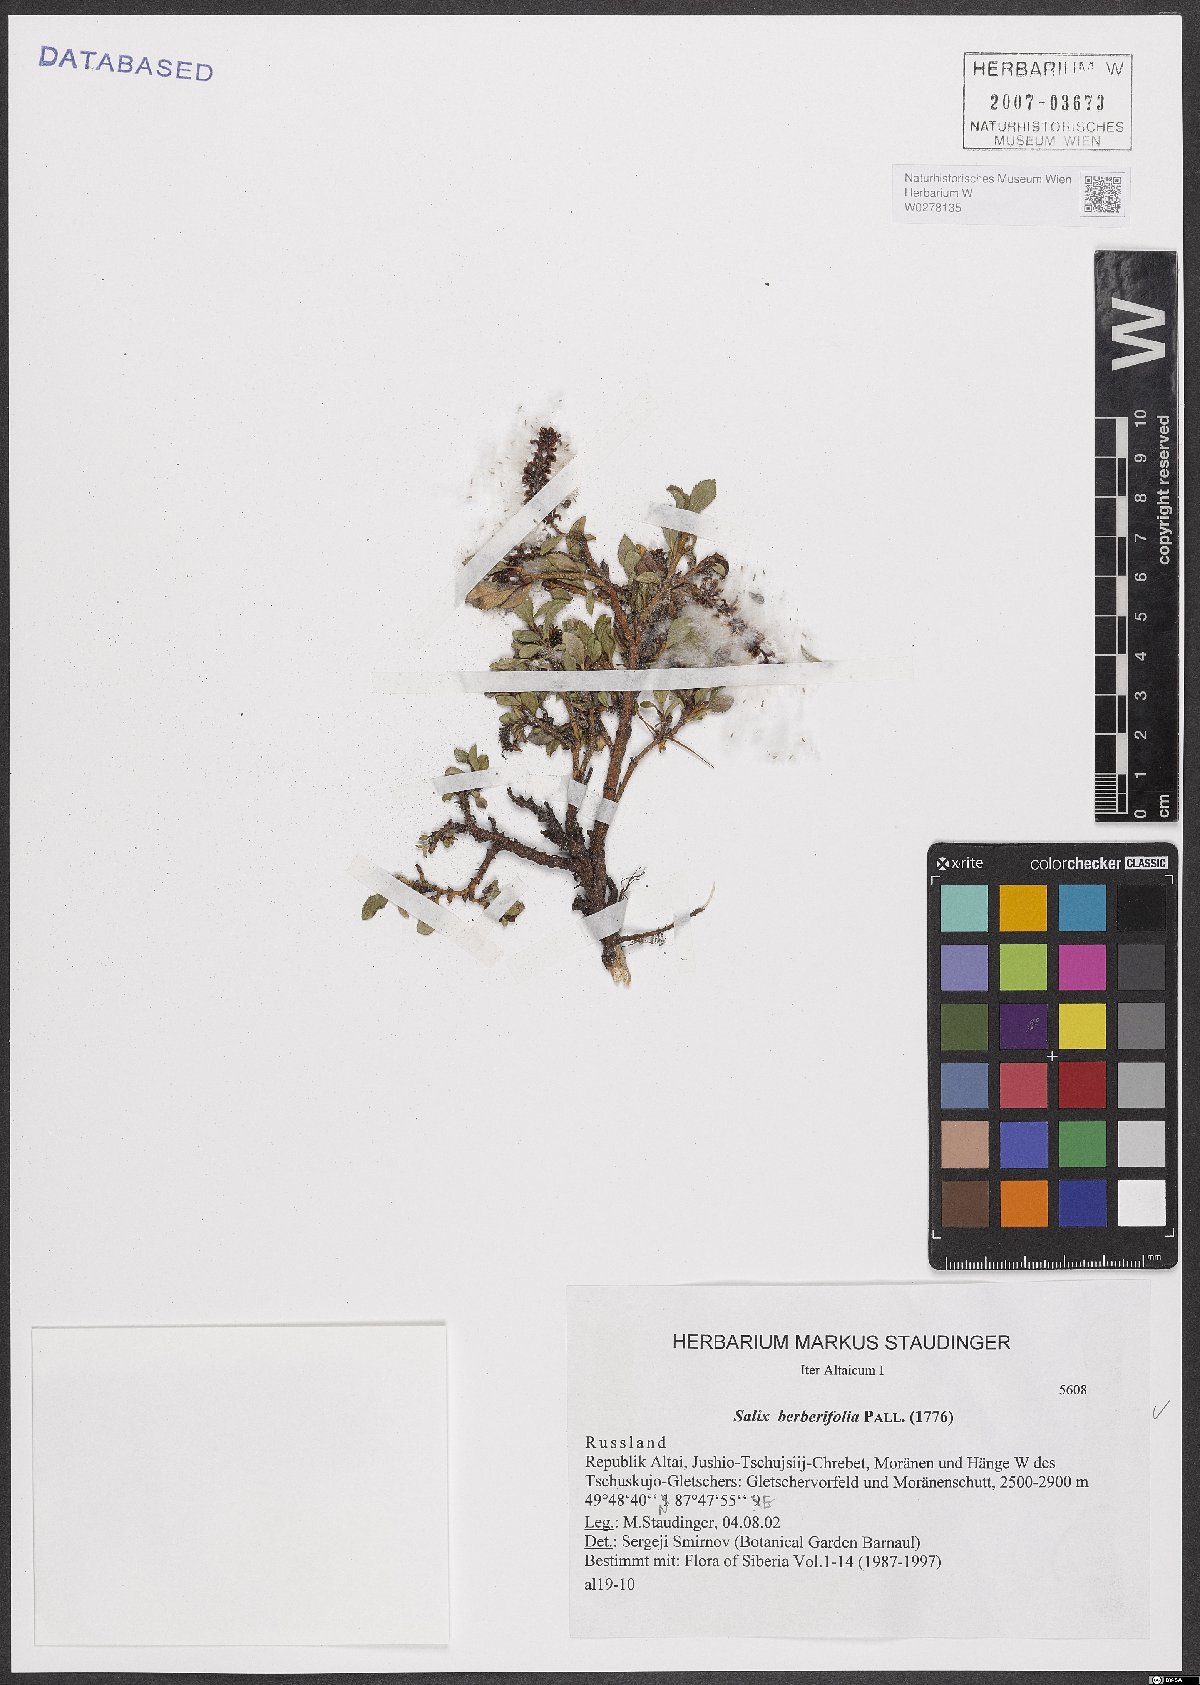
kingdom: Plantae
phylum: Tracheophyta
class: Magnoliopsida
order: Malpighiales
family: Salicaceae
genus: Salix
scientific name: Salix berberifolia
